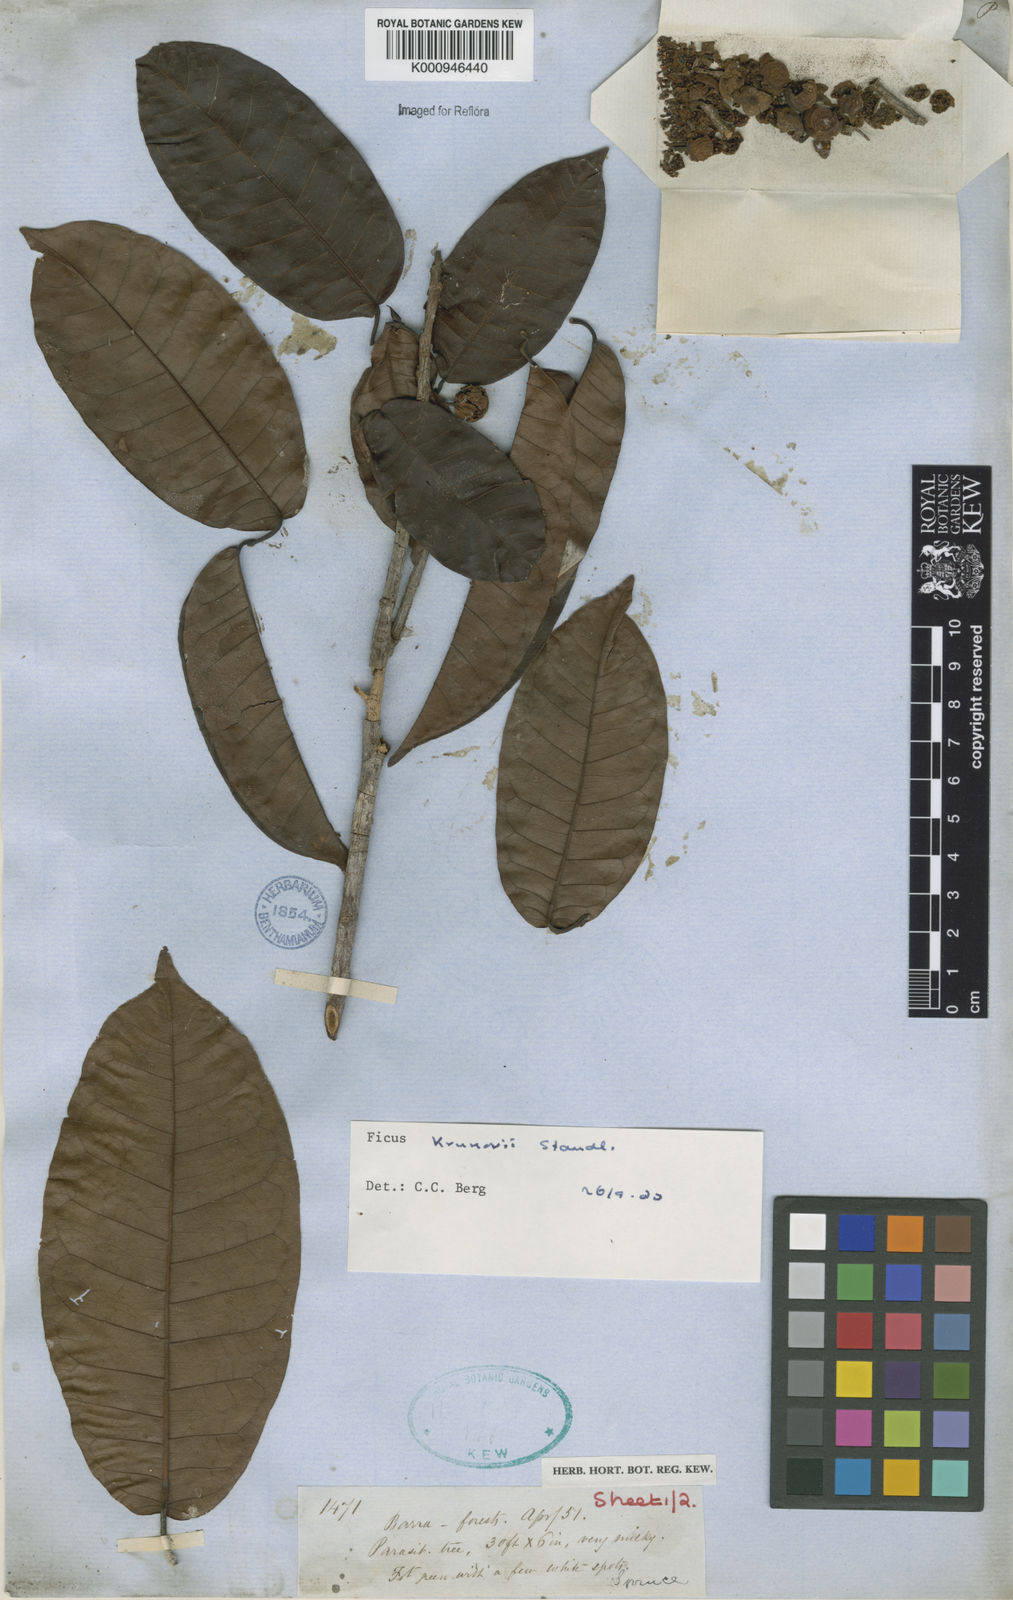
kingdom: Plantae
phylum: Tracheophyta
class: Magnoliopsida
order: Rosales
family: Moraceae
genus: Ficus
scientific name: Ficus krukovii
